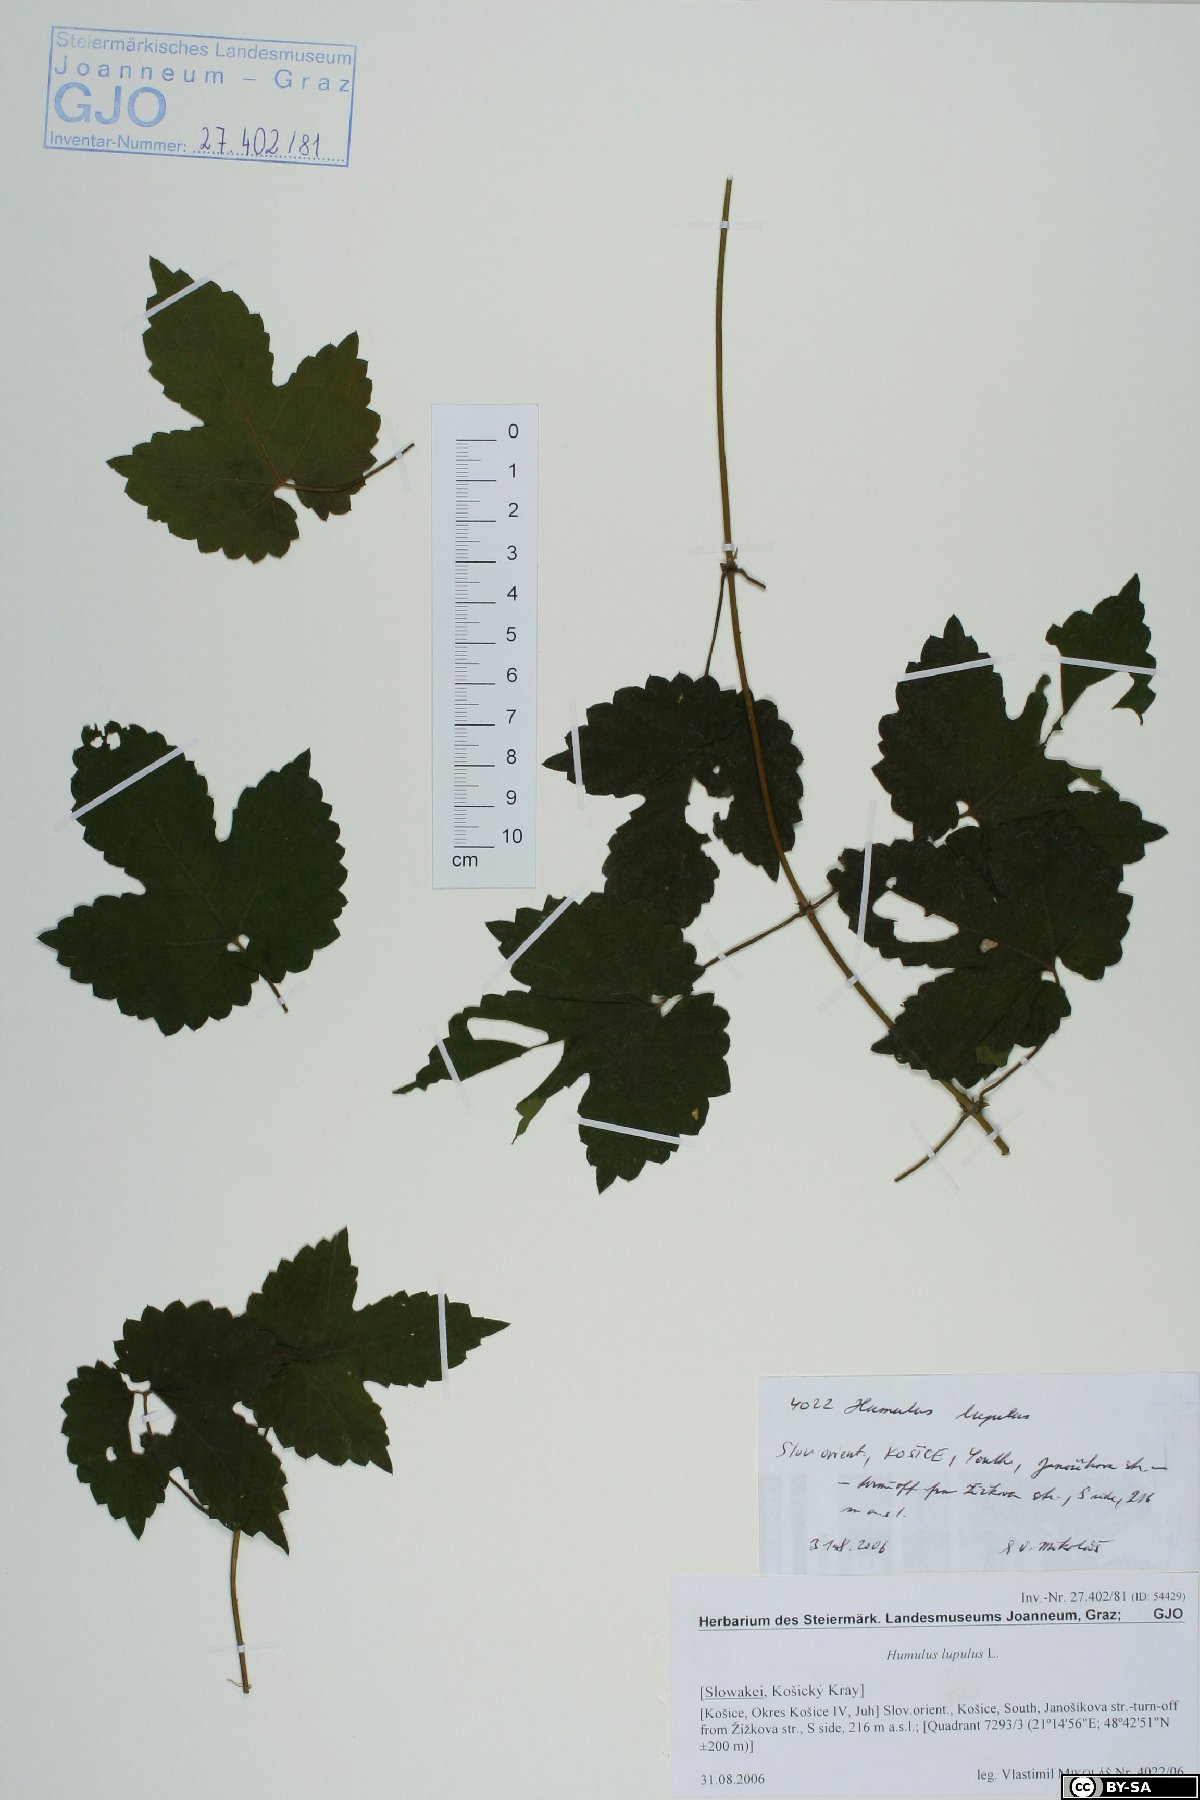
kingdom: Plantae
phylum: Tracheophyta
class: Magnoliopsida
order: Rosales
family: Cannabaceae
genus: Humulus
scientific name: Humulus lupulus
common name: Hop
